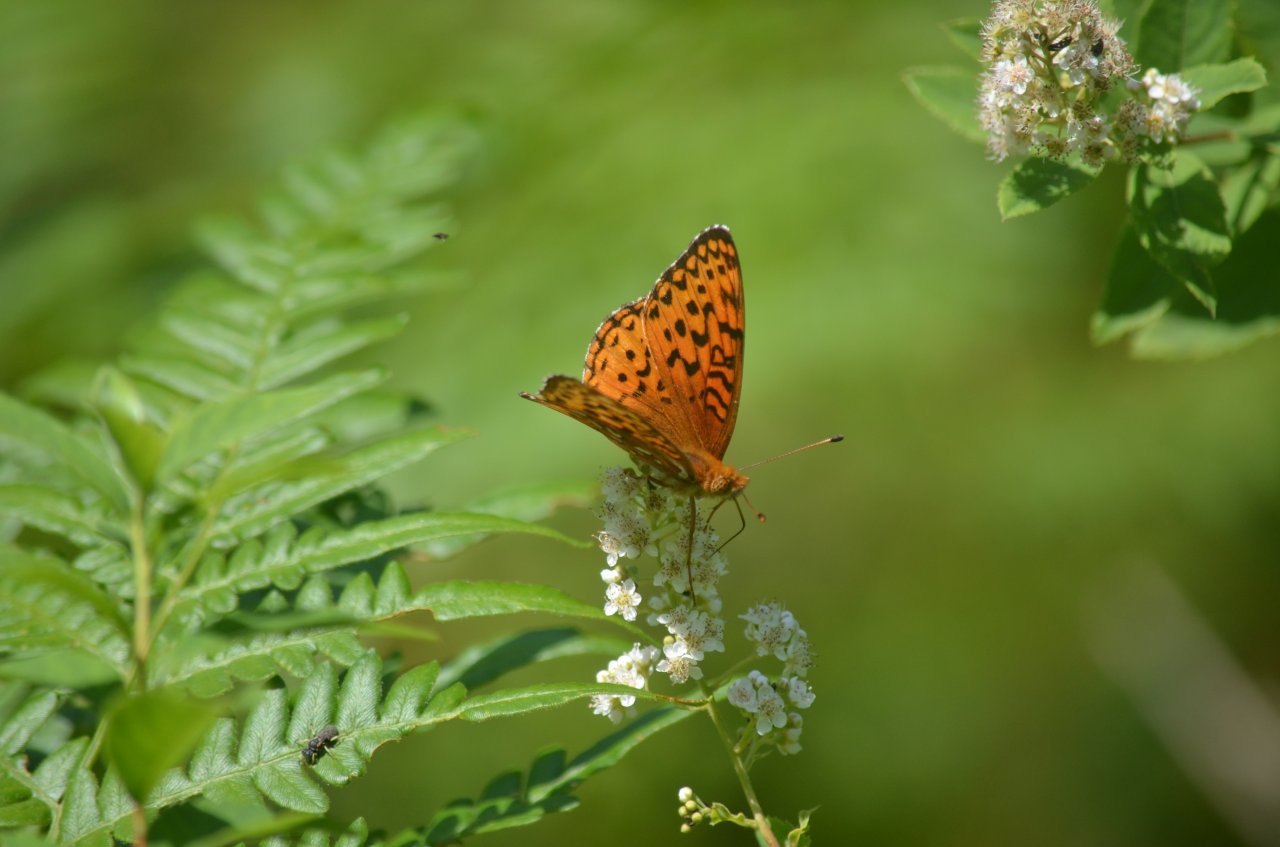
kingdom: Animalia
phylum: Arthropoda
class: Insecta
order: Lepidoptera
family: Nymphalidae
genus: Speyeria
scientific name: Speyeria aphrodite
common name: Aphrodite Fritillary
